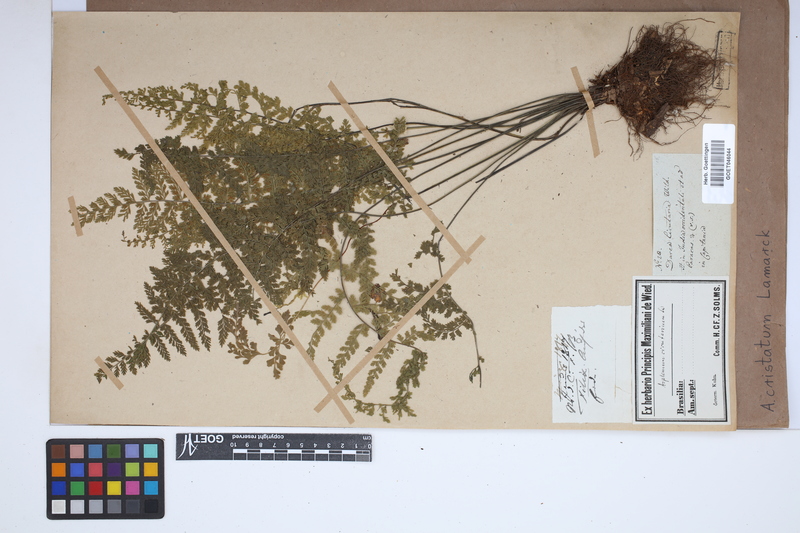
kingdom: Plantae
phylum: Tracheophyta
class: Polypodiopsida
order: Polypodiales
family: Aspleniaceae
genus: Asplenium
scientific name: Asplenium cristatum
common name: Parsley spleenwort
